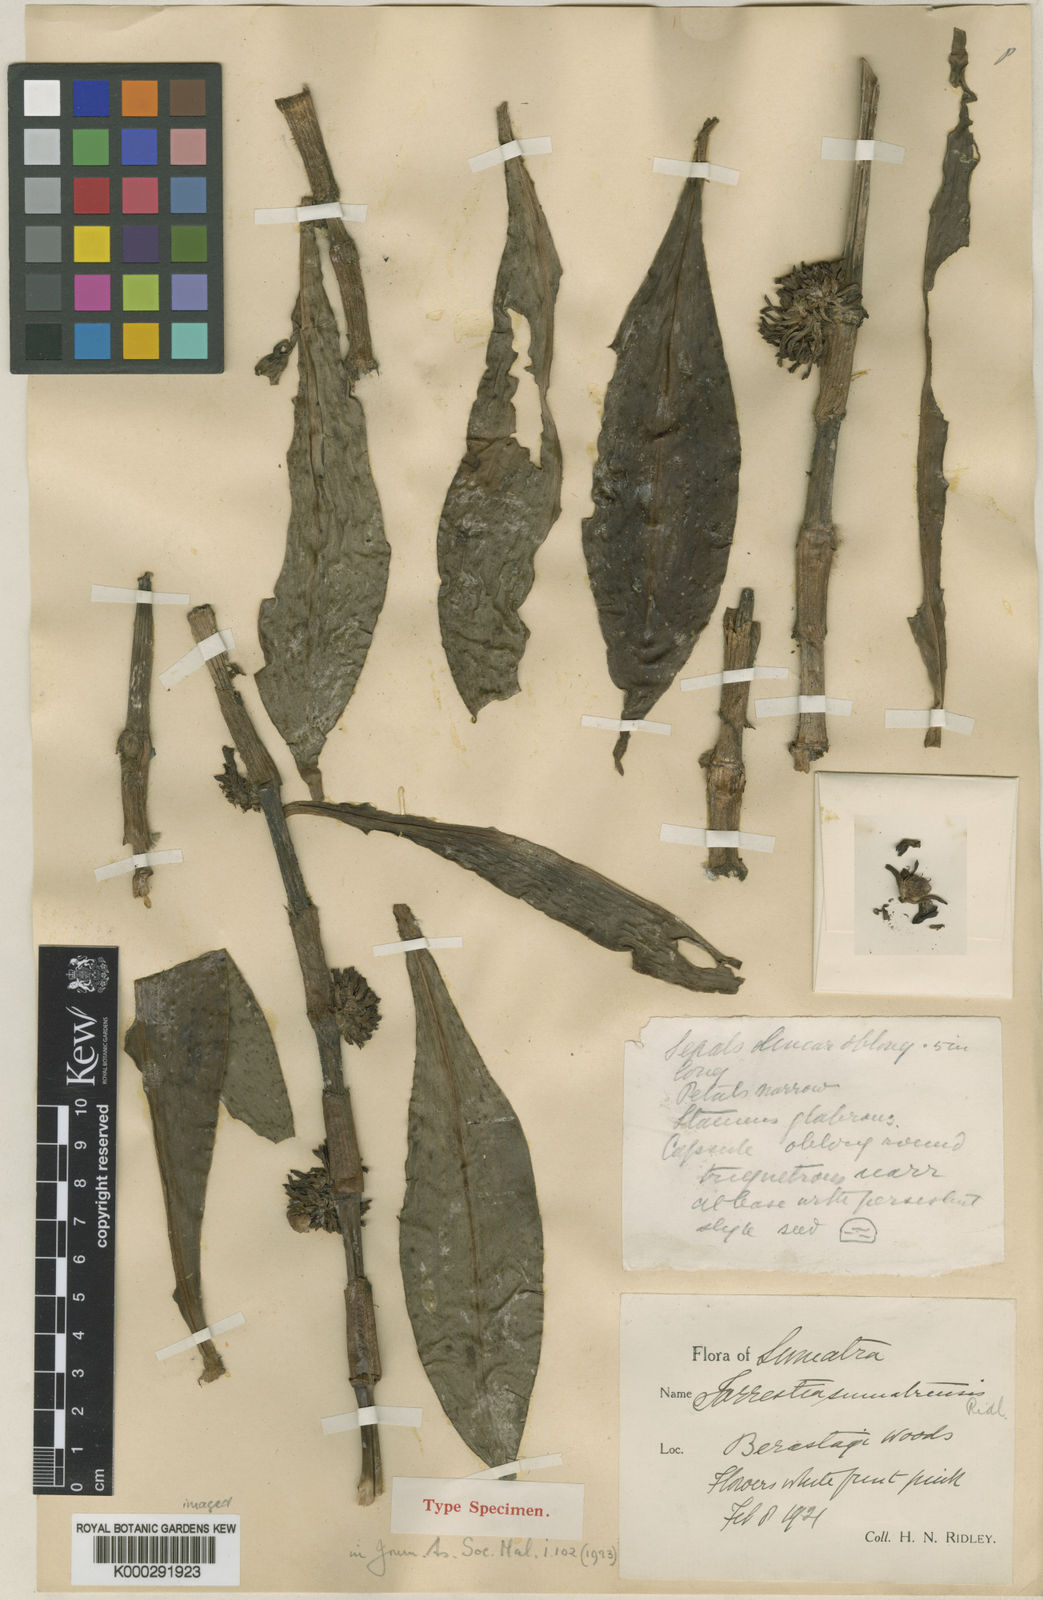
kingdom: Plantae
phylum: Tracheophyta
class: Liliopsida
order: Commelinales
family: Commelinaceae
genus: Amischotolype
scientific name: Amischotolype
